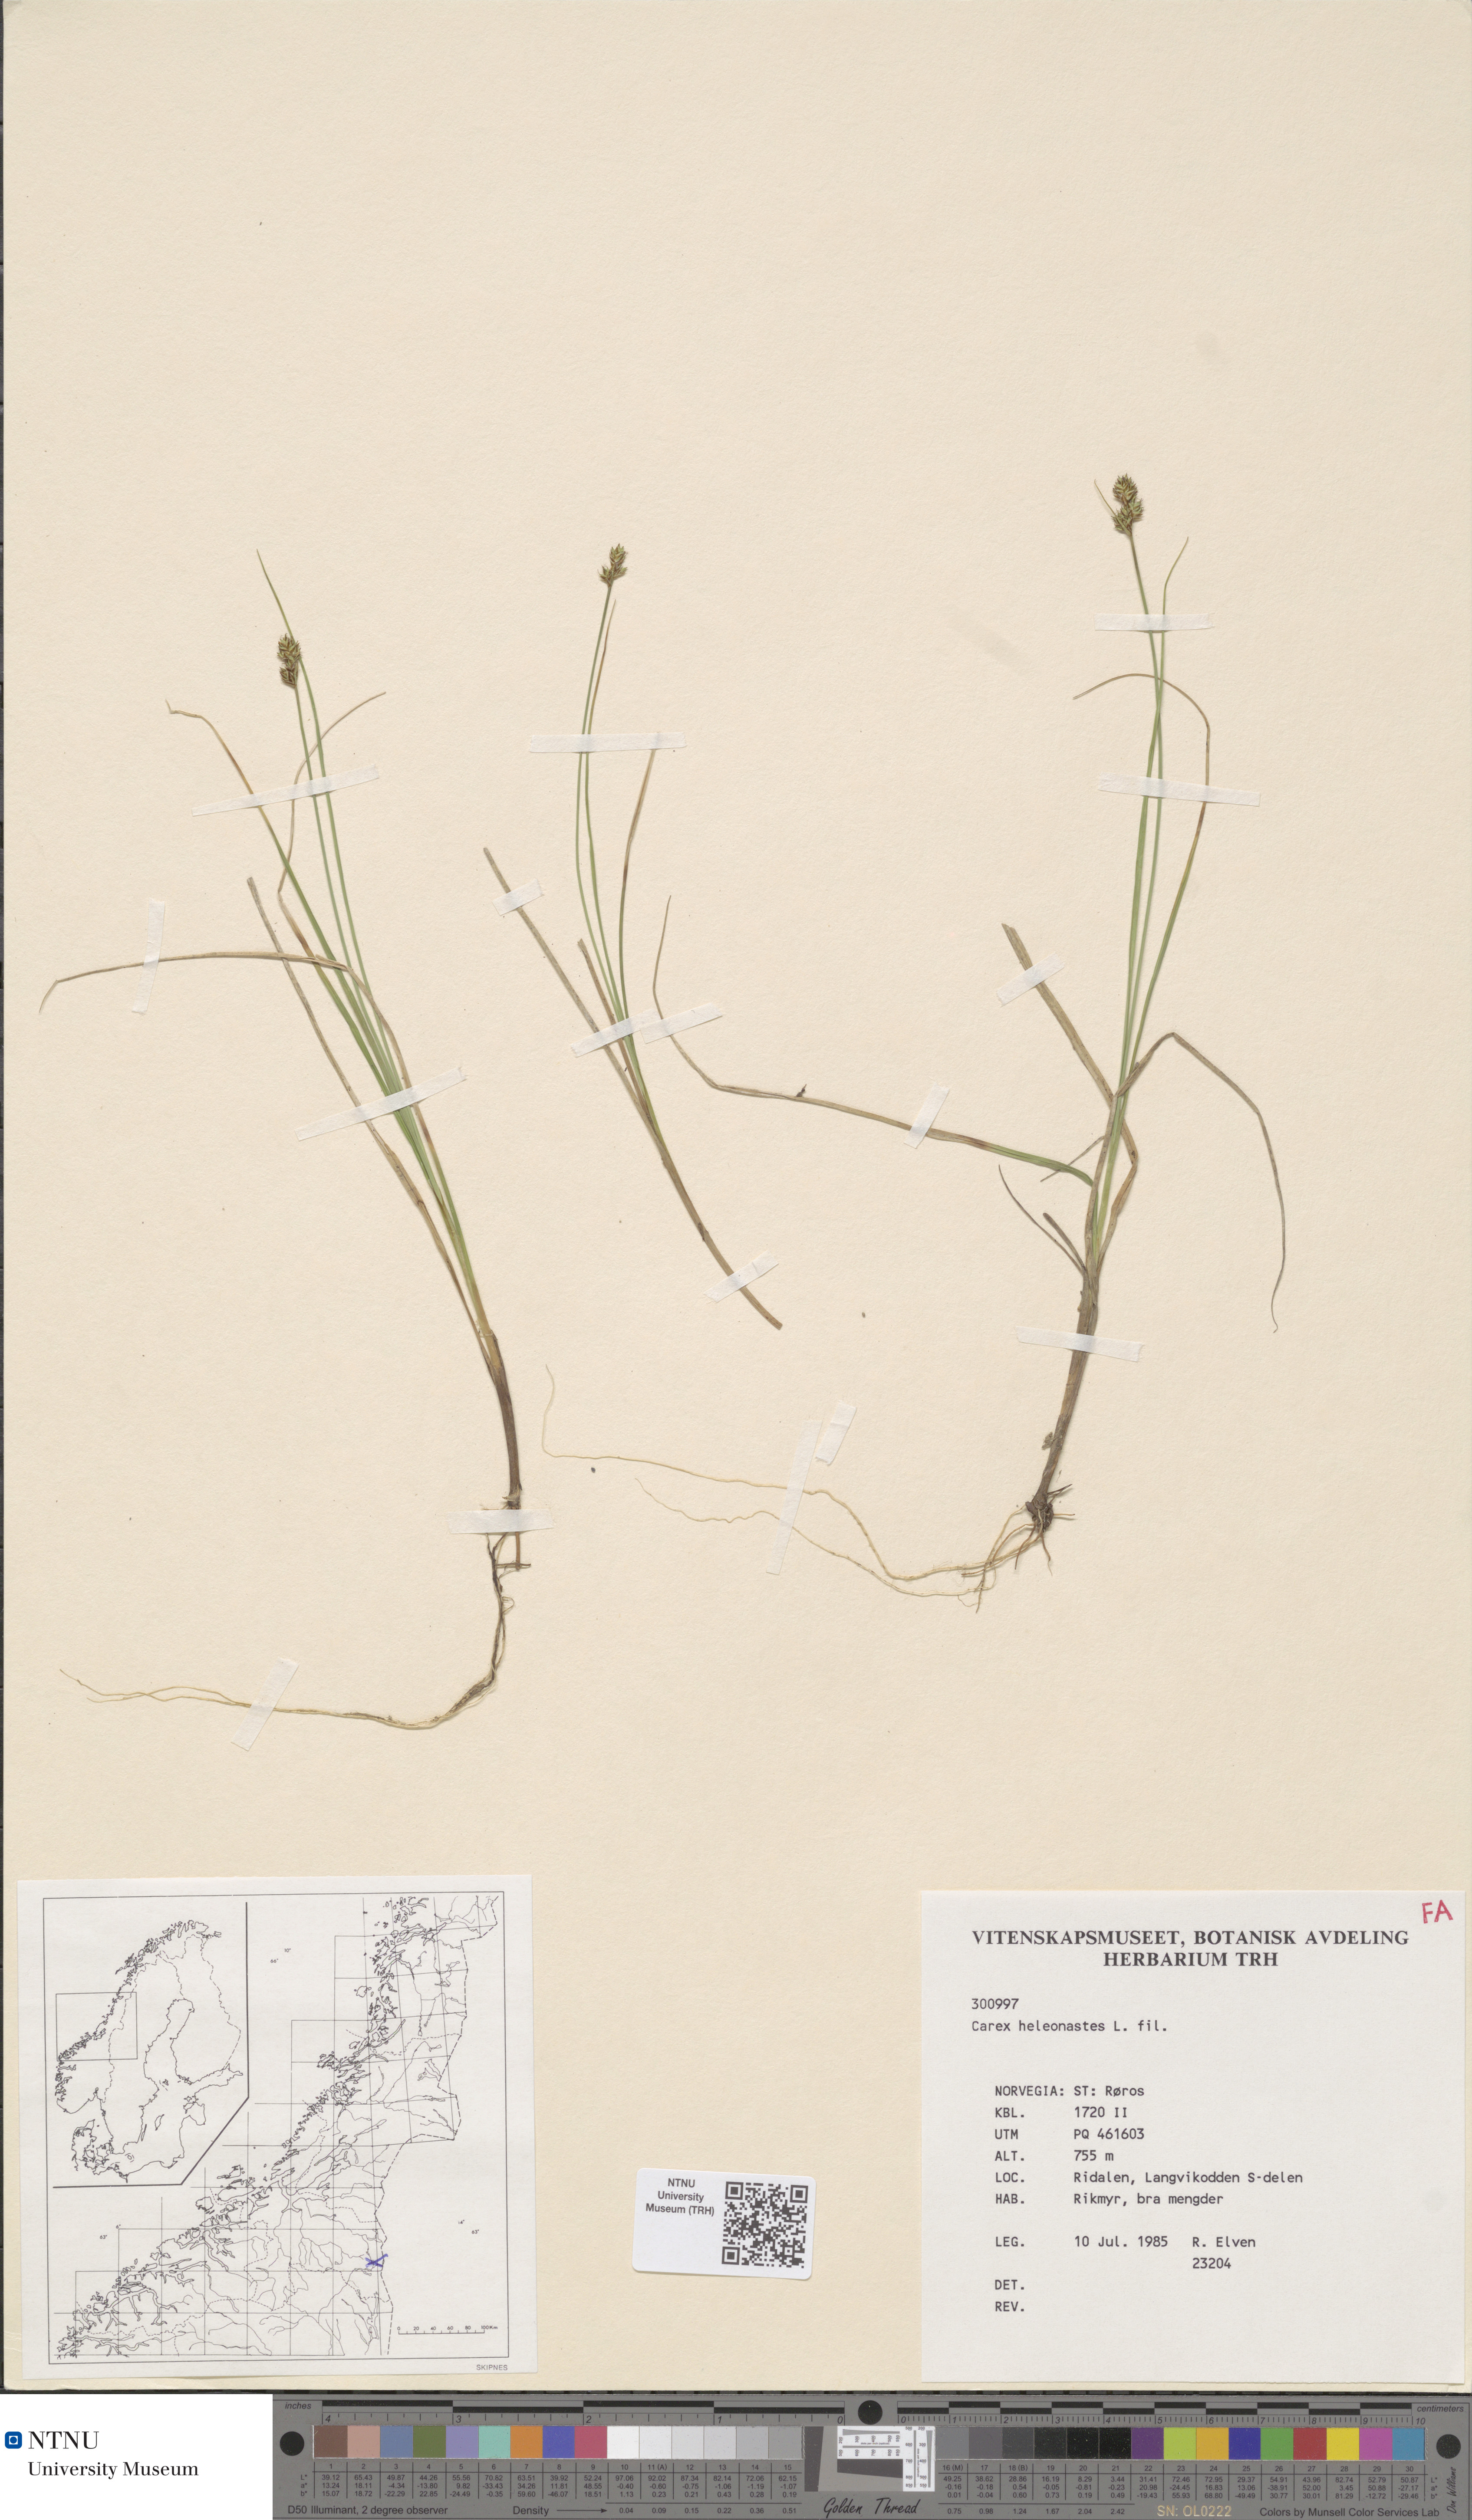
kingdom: Plantae
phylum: Tracheophyta
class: Liliopsida
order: Poales
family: Cyperaceae
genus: Carex
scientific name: Carex heleonastes
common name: Hudson bay sedge
